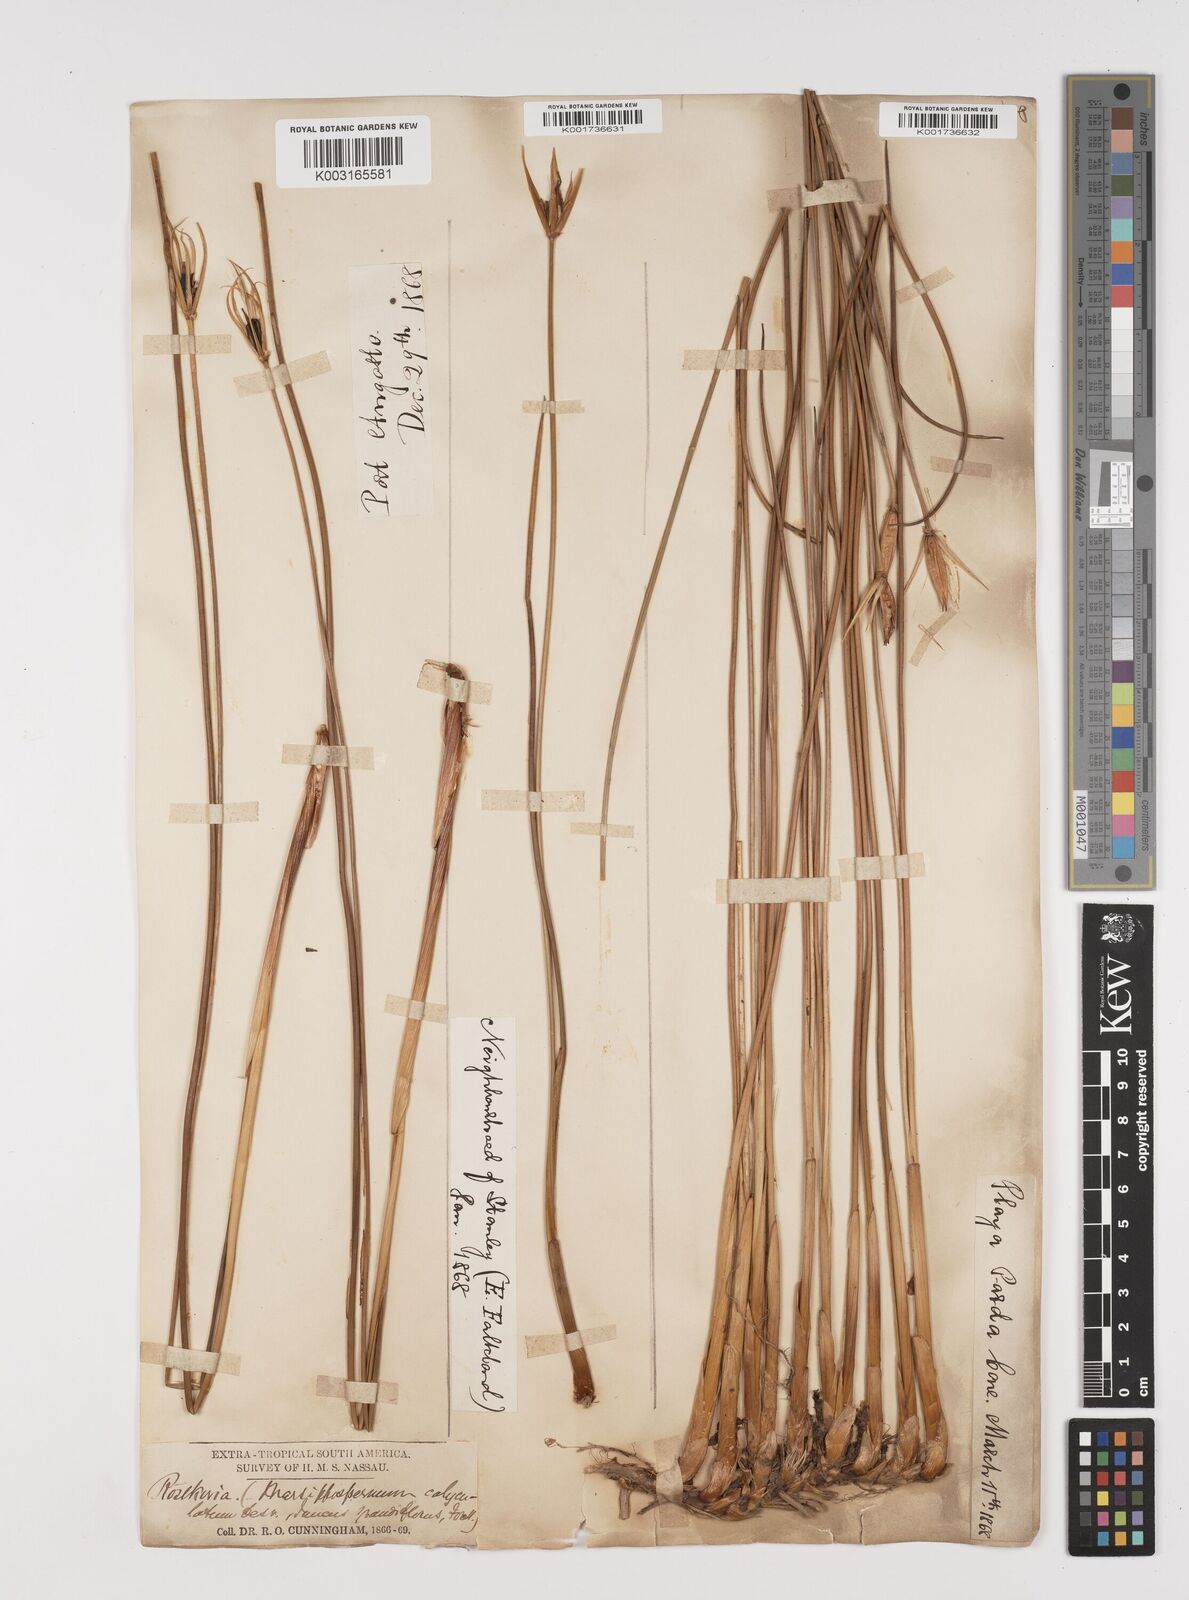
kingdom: Plantae
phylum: Tracheophyta
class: Liliopsida
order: Poales
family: Juncaceae
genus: Marsippospermum
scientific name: Marsippospermum grandiflorum
